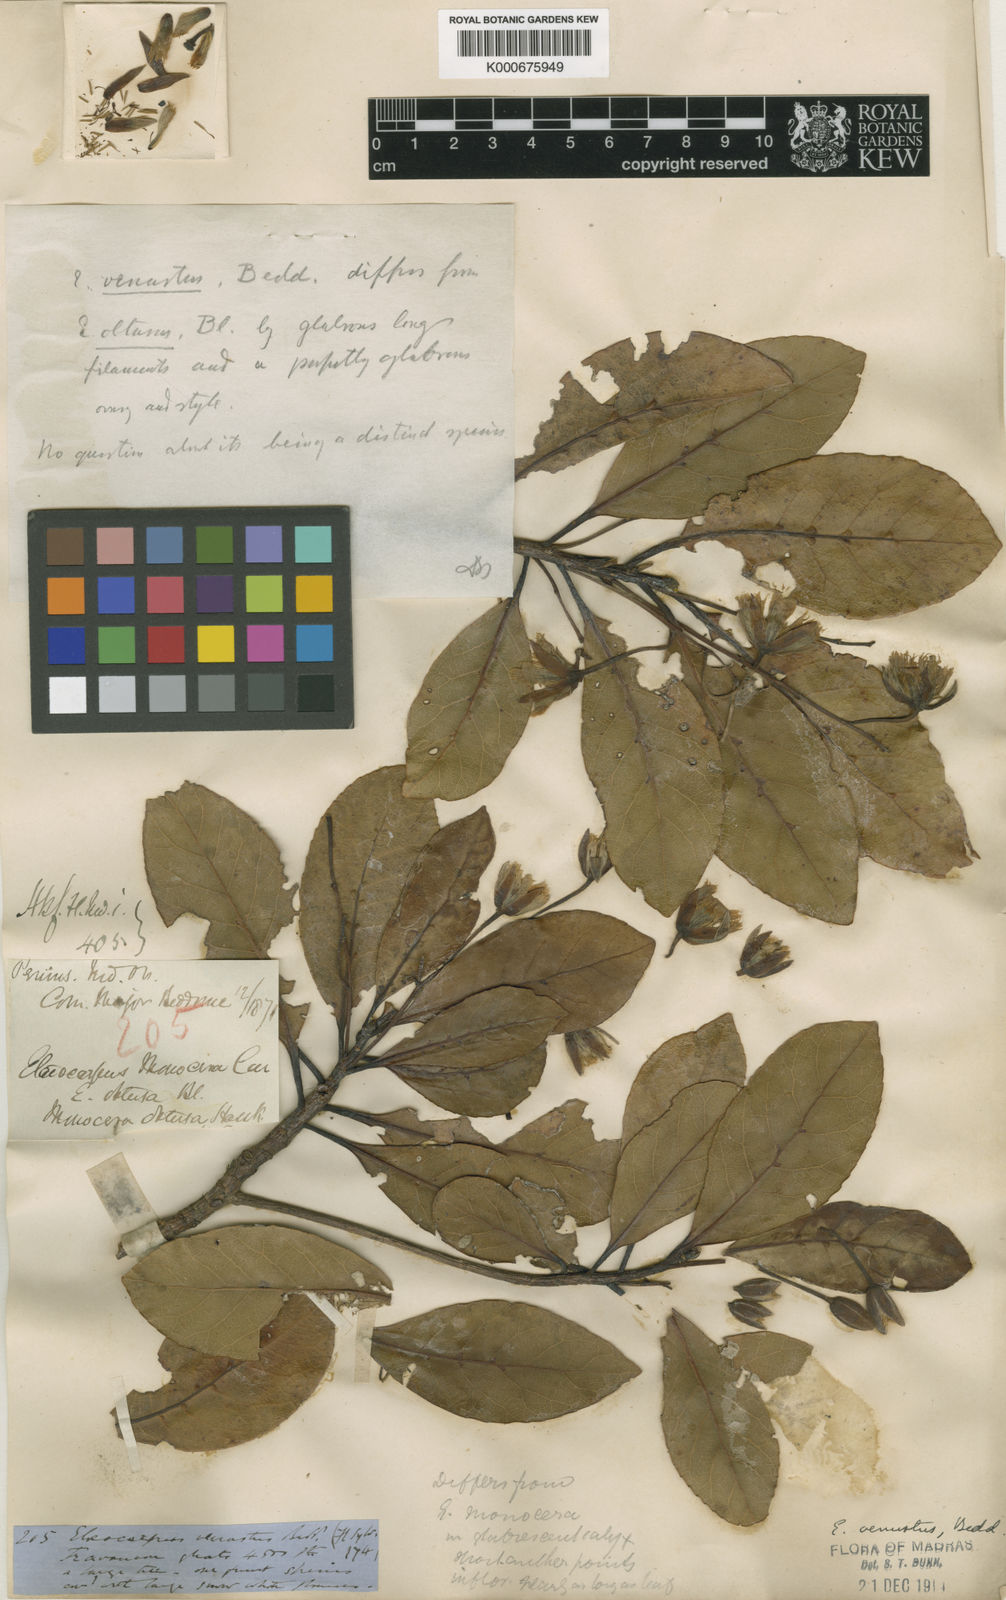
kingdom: Plantae
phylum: Tracheophyta
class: Magnoliopsida
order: Oxalidales
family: Elaeocarpaceae
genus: Elaeocarpus
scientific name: Elaeocarpus venustus
